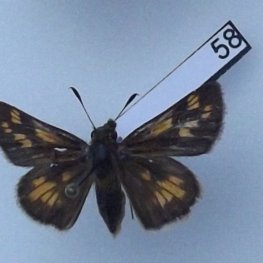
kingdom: Animalia
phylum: Arthropoda
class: Insecta
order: Lepidoptera
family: Hesperiidae
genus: Polites
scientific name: Polites coras
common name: Peck's Skipper
